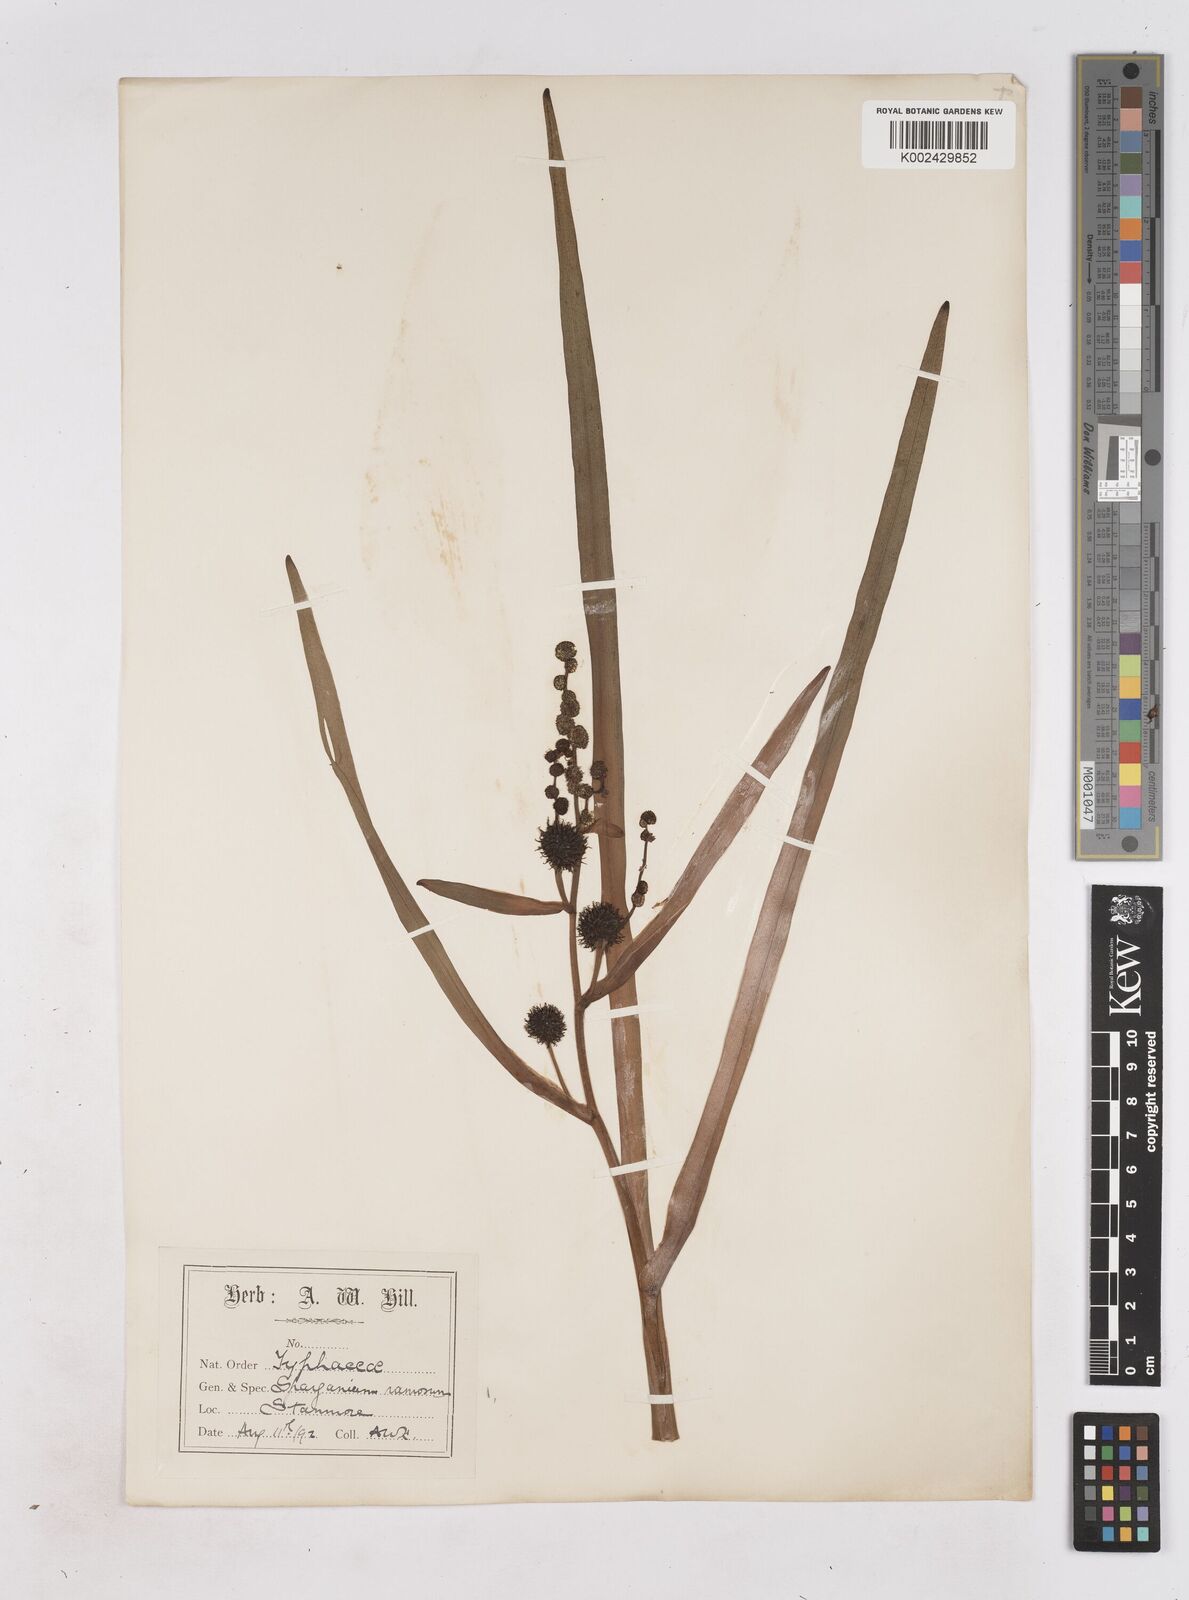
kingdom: Plantae
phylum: Tracheophyta
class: Liliopsida
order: Poales
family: Typhaceae
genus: Sparganium
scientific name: Sparganium erectum
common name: Branched bur-reed
